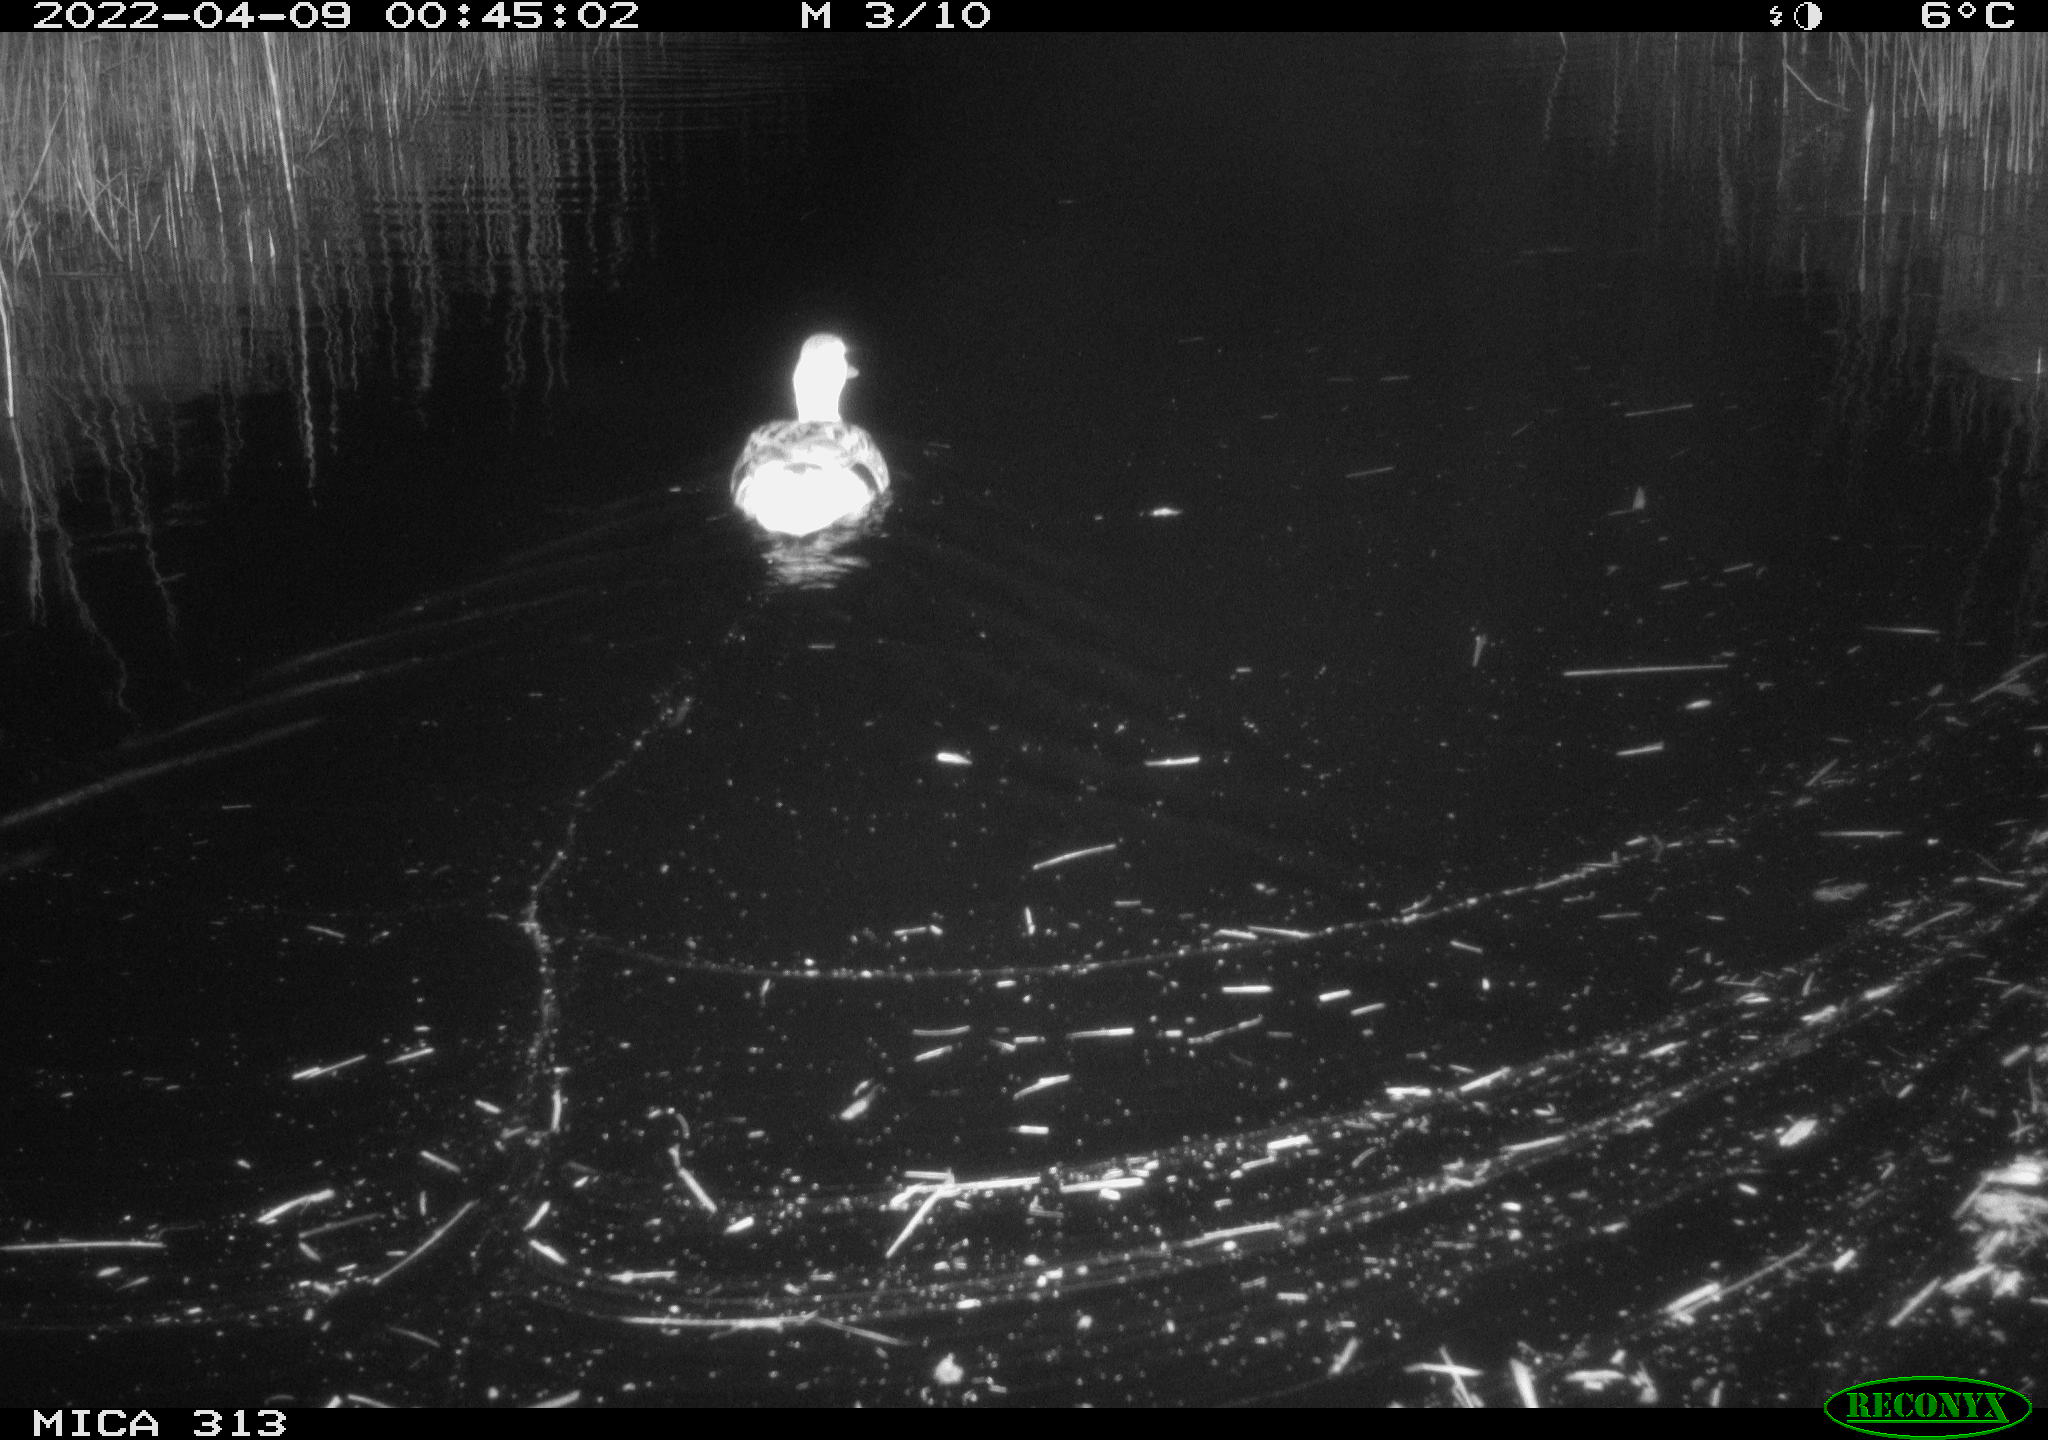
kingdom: Animalia
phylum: Chordata
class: Aves
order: Anseriformes
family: Anatidae
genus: Anas
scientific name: Anas platyrhynchos
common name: Mallard
